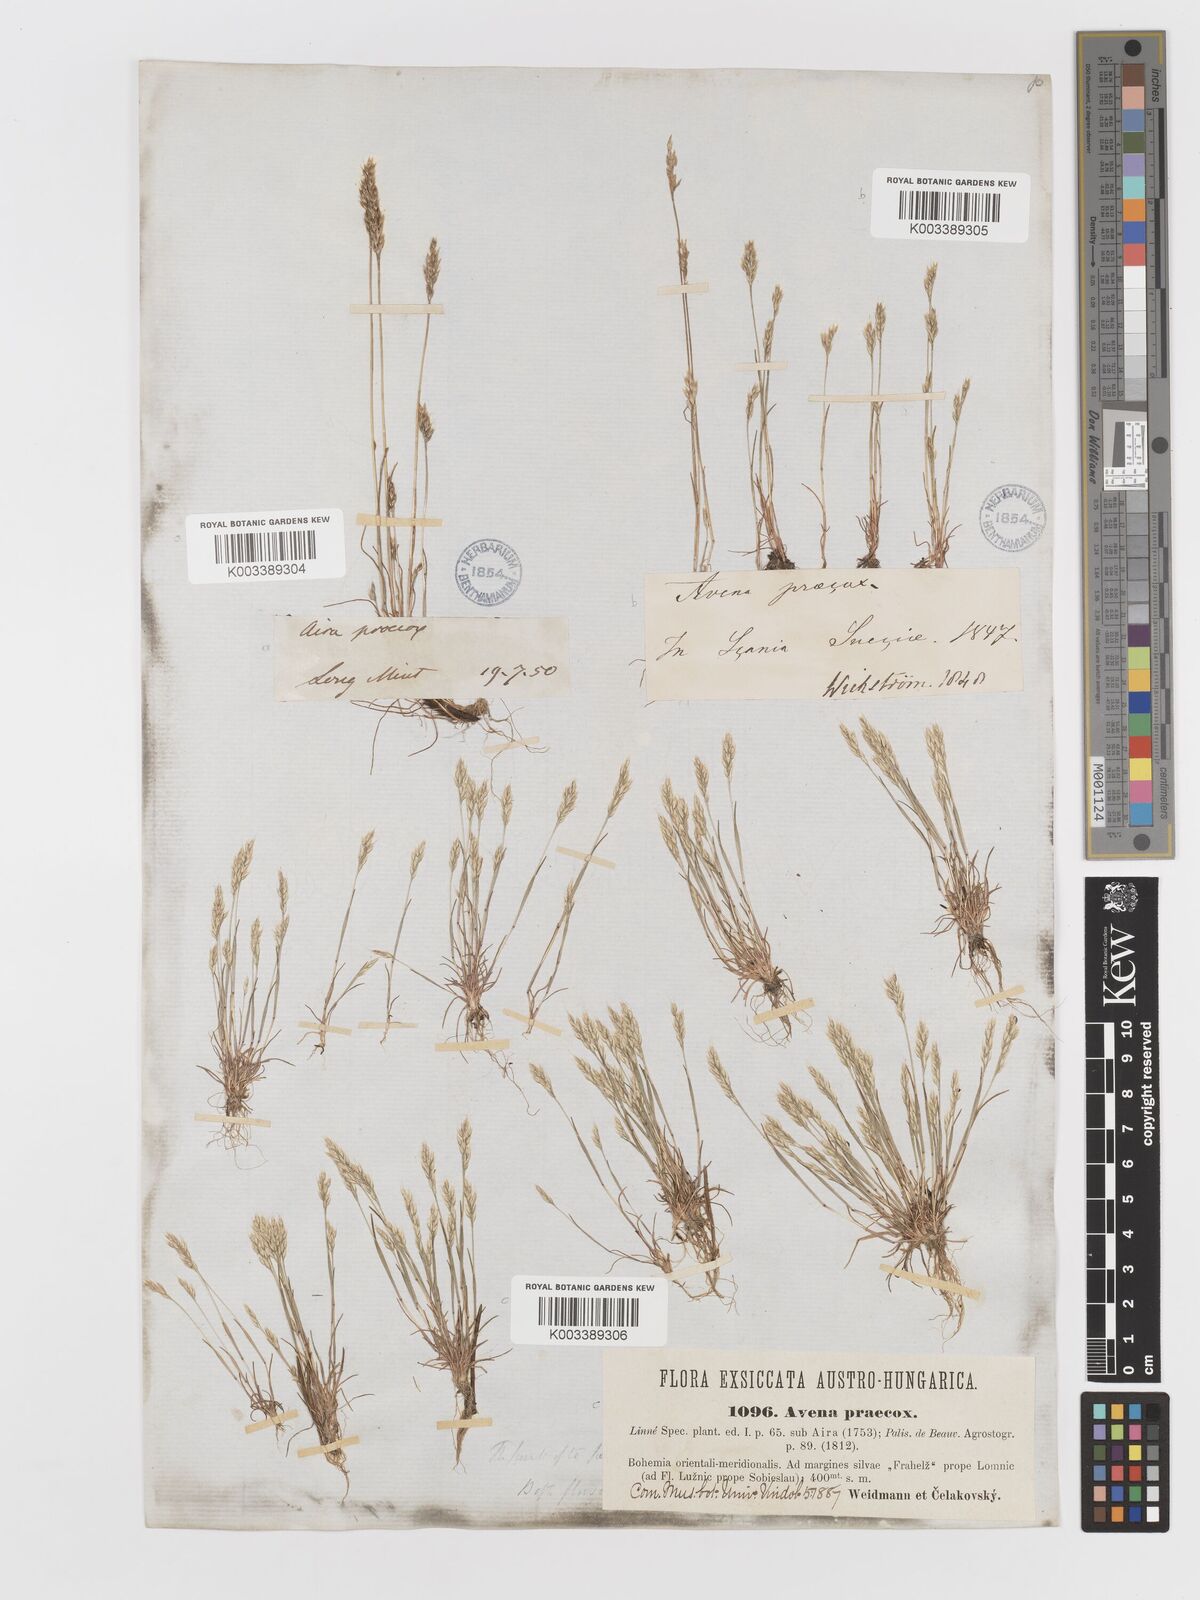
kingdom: Plantae
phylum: Tracheophyta
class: Liliopsida
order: Poales
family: Poaceae
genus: Aira
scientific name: Aira praecox
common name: Early hair-grass
